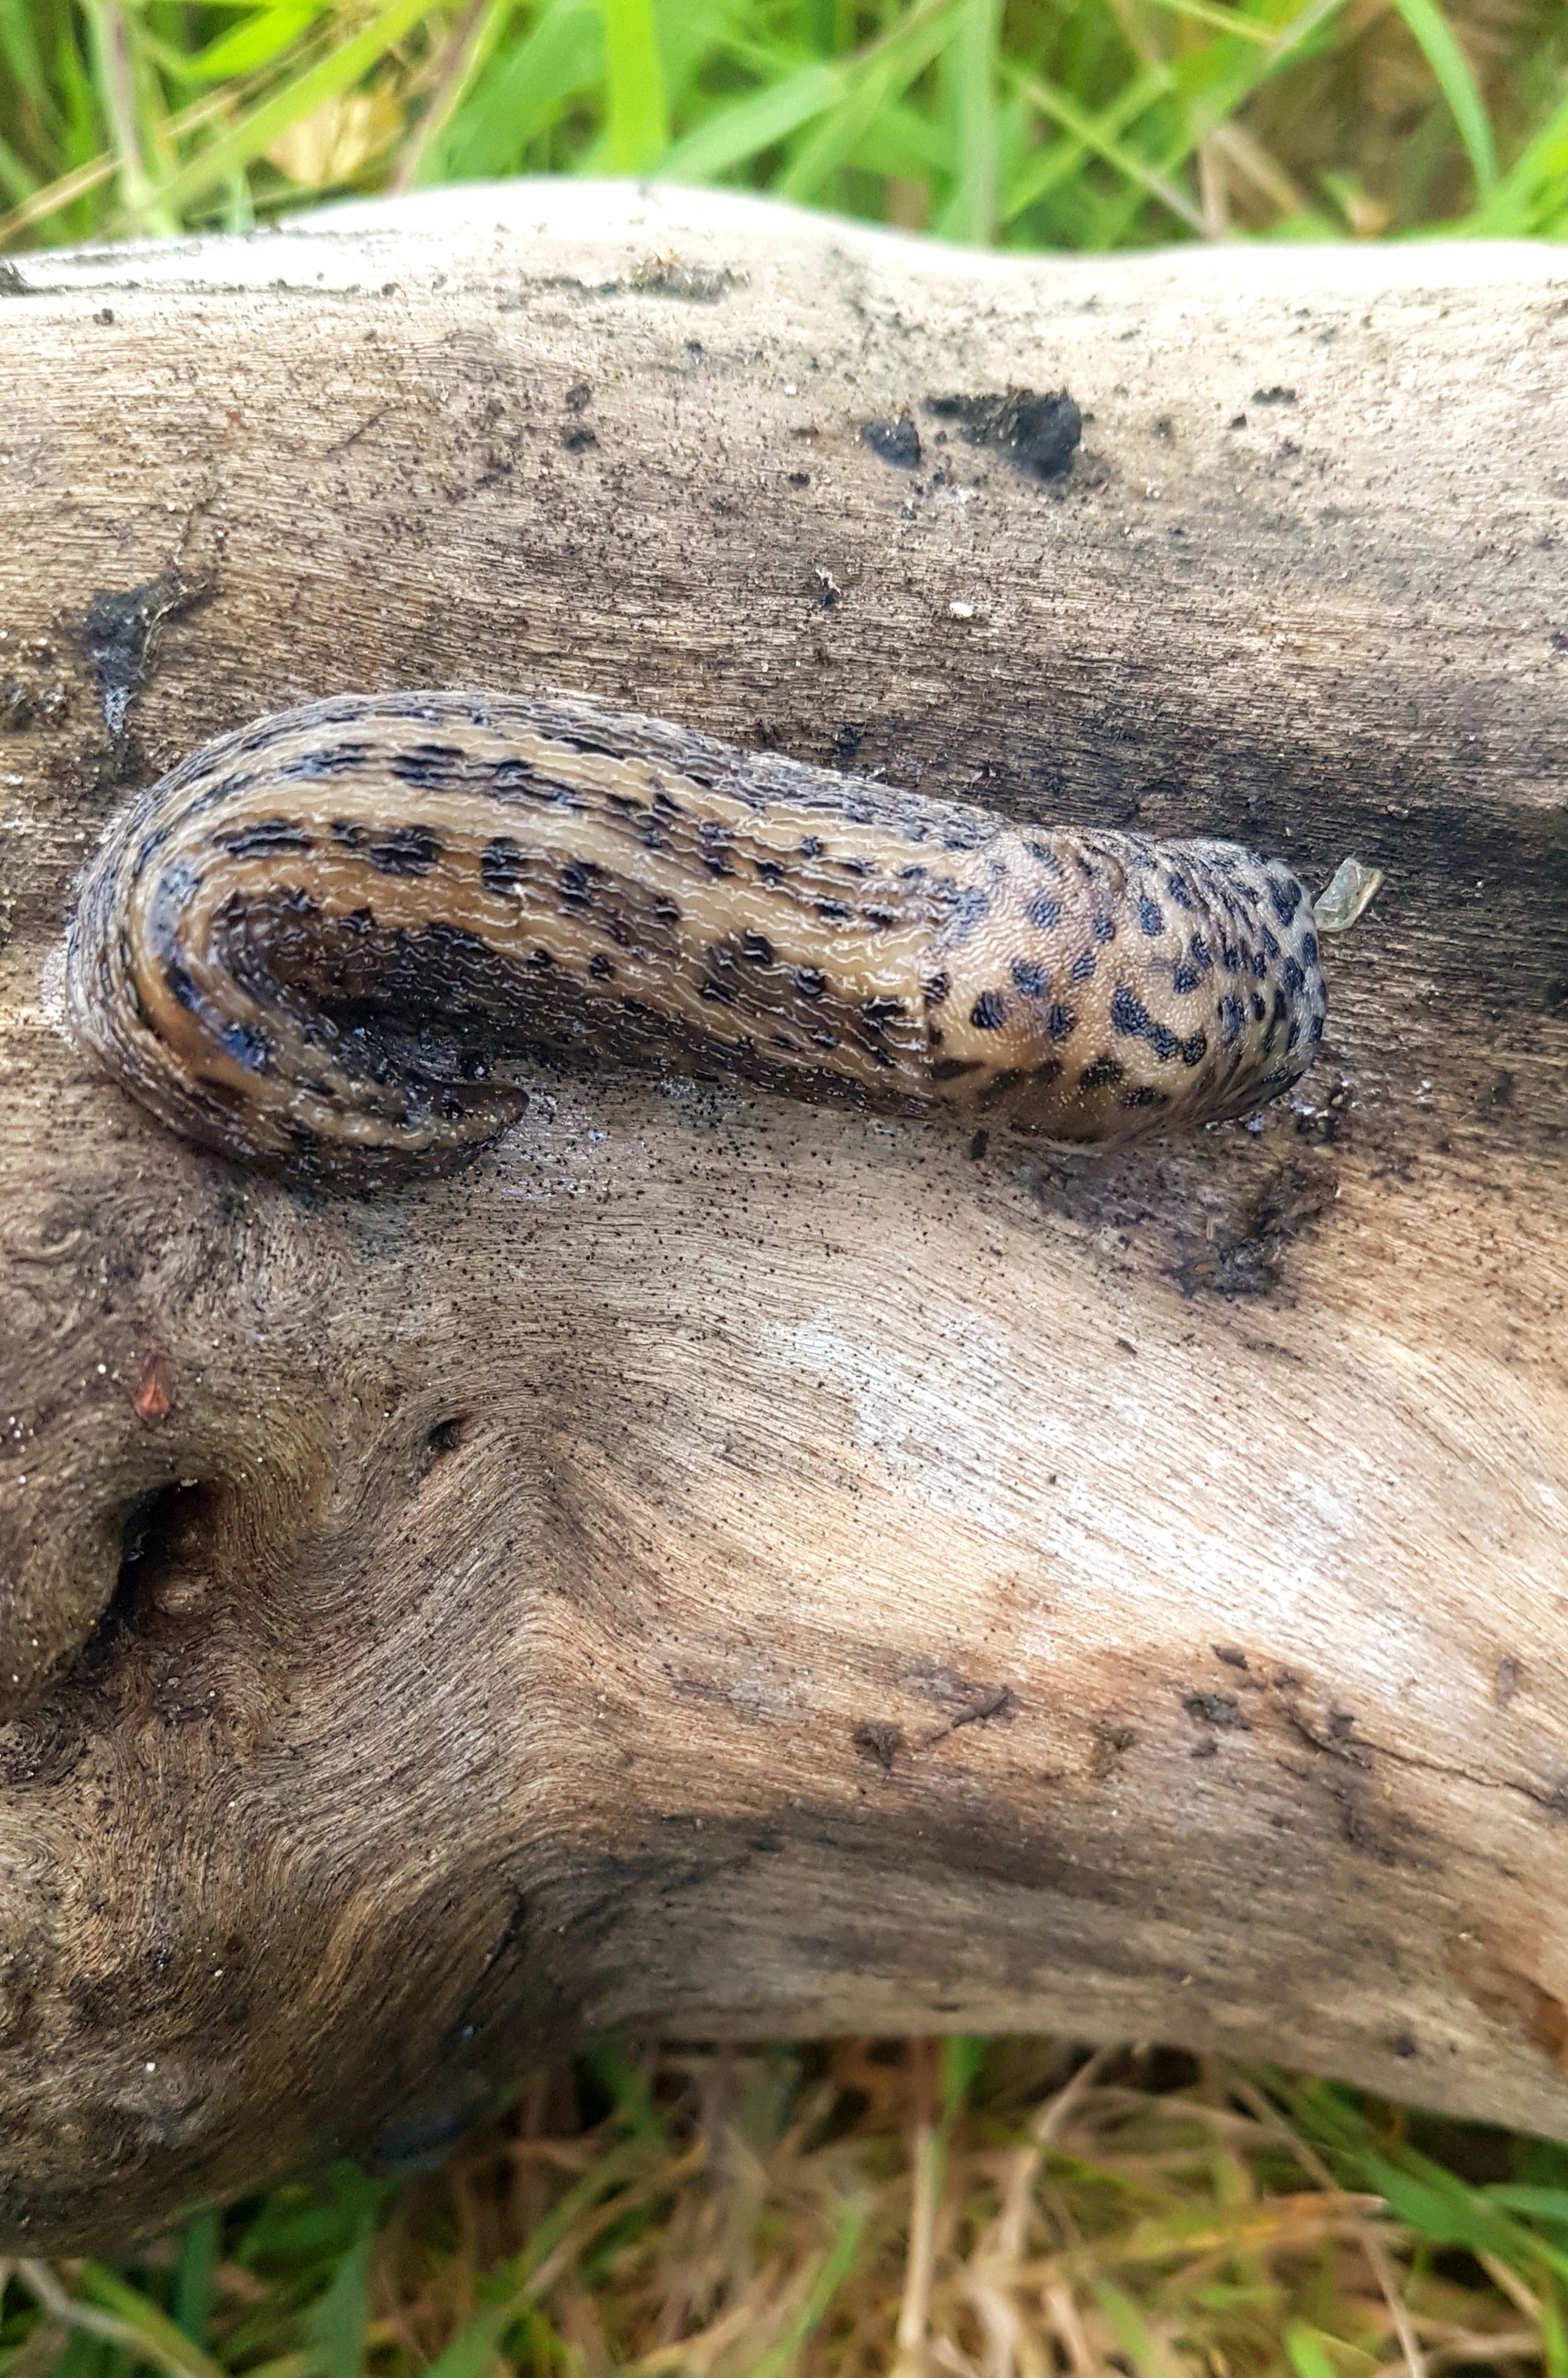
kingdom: Animalia
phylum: Mollusca
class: Gastropoda
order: Stylommatophora
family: Limacidae
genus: Limax
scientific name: Limax maximus
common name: Pantersnegl
